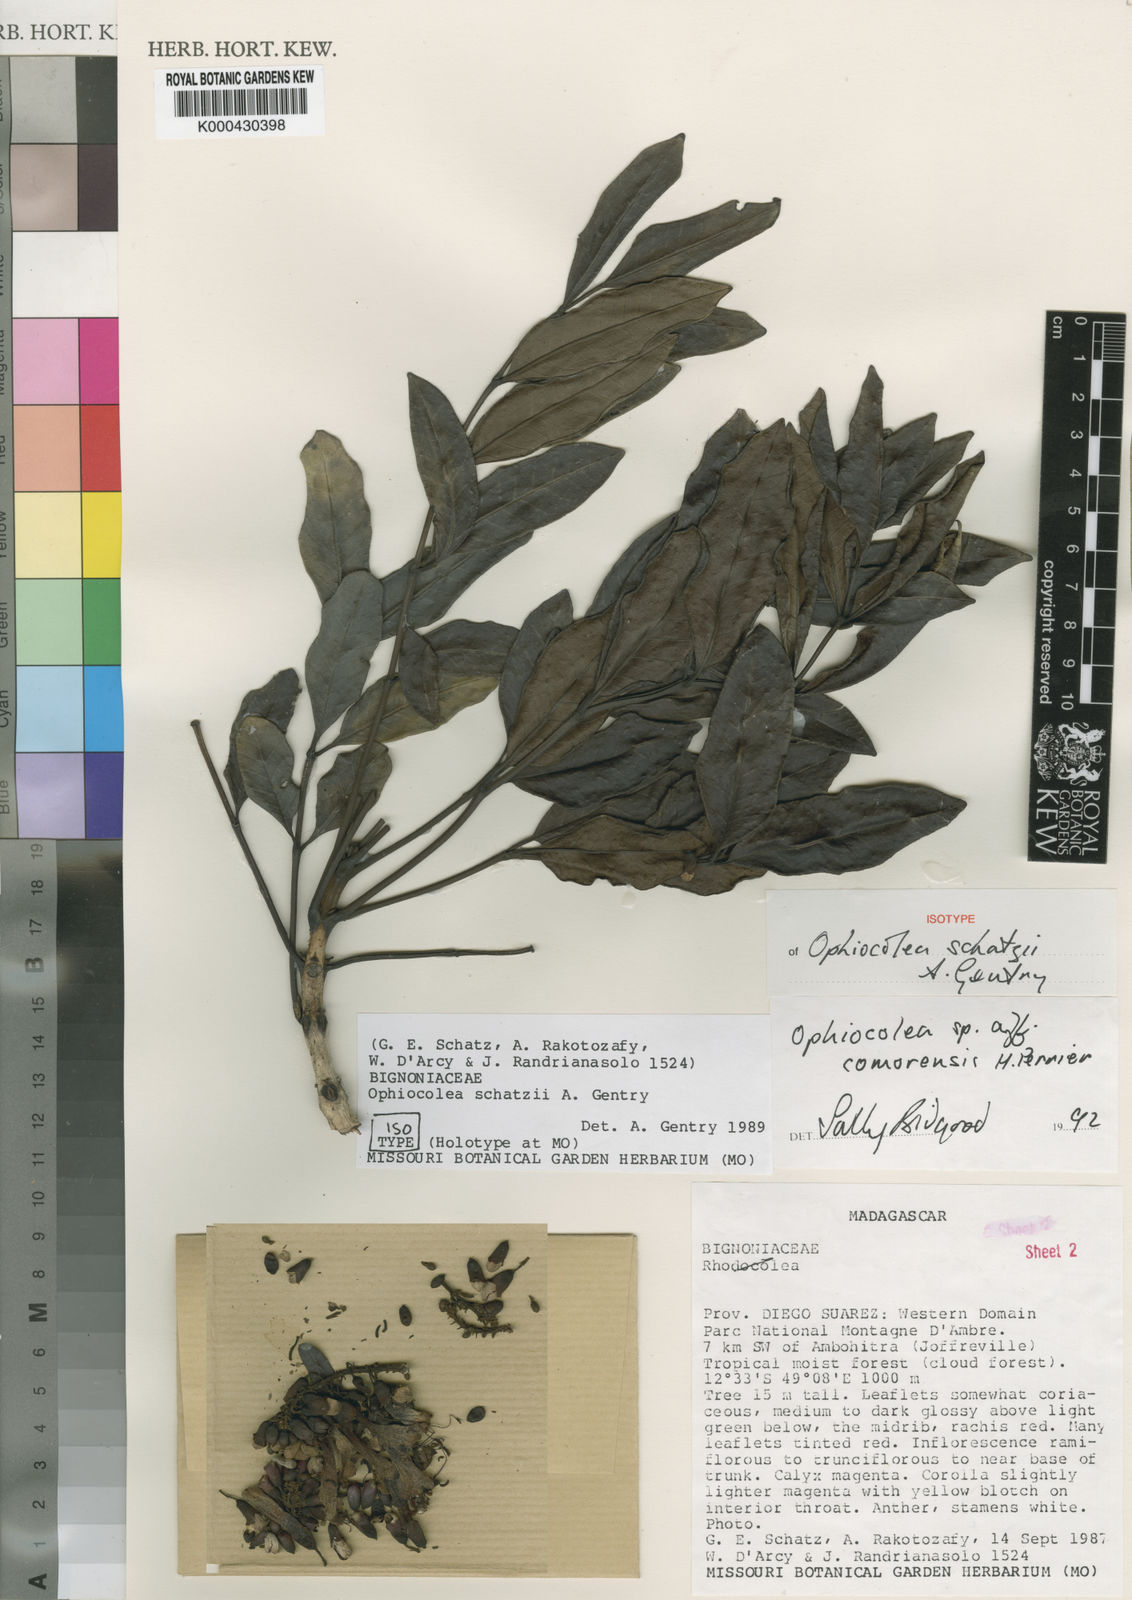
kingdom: Plantae
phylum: Tracheophyta
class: Magnoliopsida
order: Lamiales
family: Bignoniaceae
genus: Colea
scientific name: Colea ambrensis
